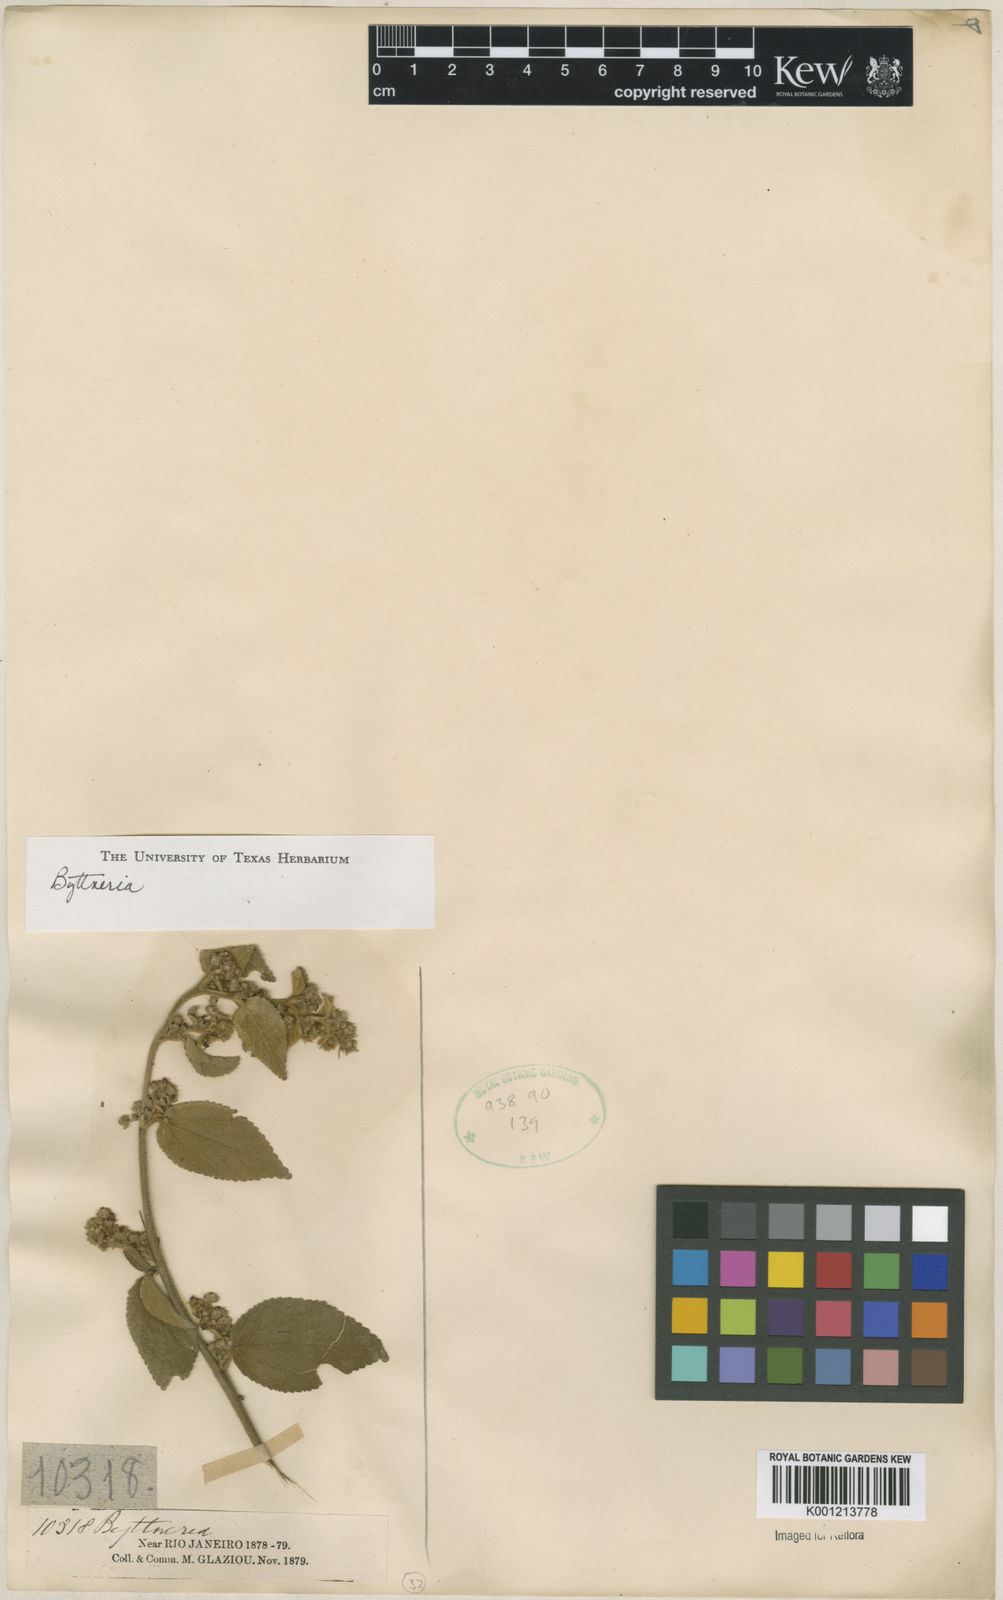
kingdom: Plantae
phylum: Tracheophyta
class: Magnoliopsida
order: Malvales
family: Malvaceae
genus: Byttneria
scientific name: Byttneria
